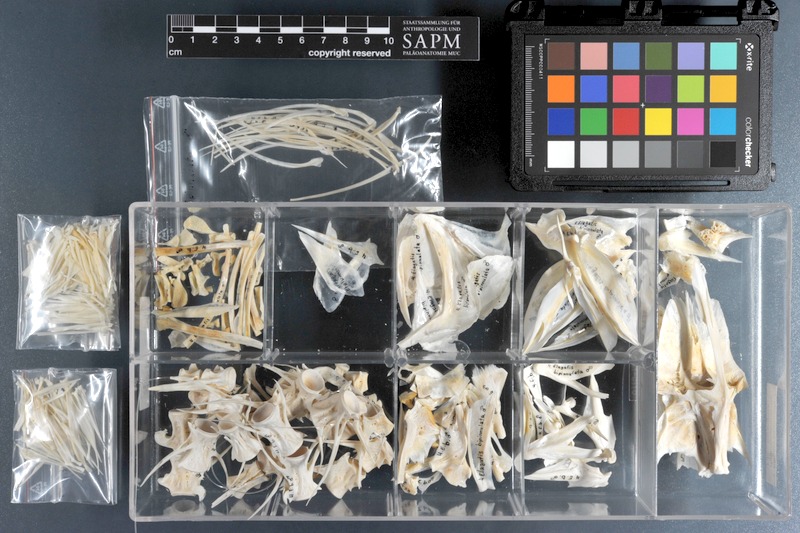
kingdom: Animalia
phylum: Chordata
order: Perciformes
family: Carangidae
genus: Elagatis
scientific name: Elagatis bipinnulata
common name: Rainbow runner
